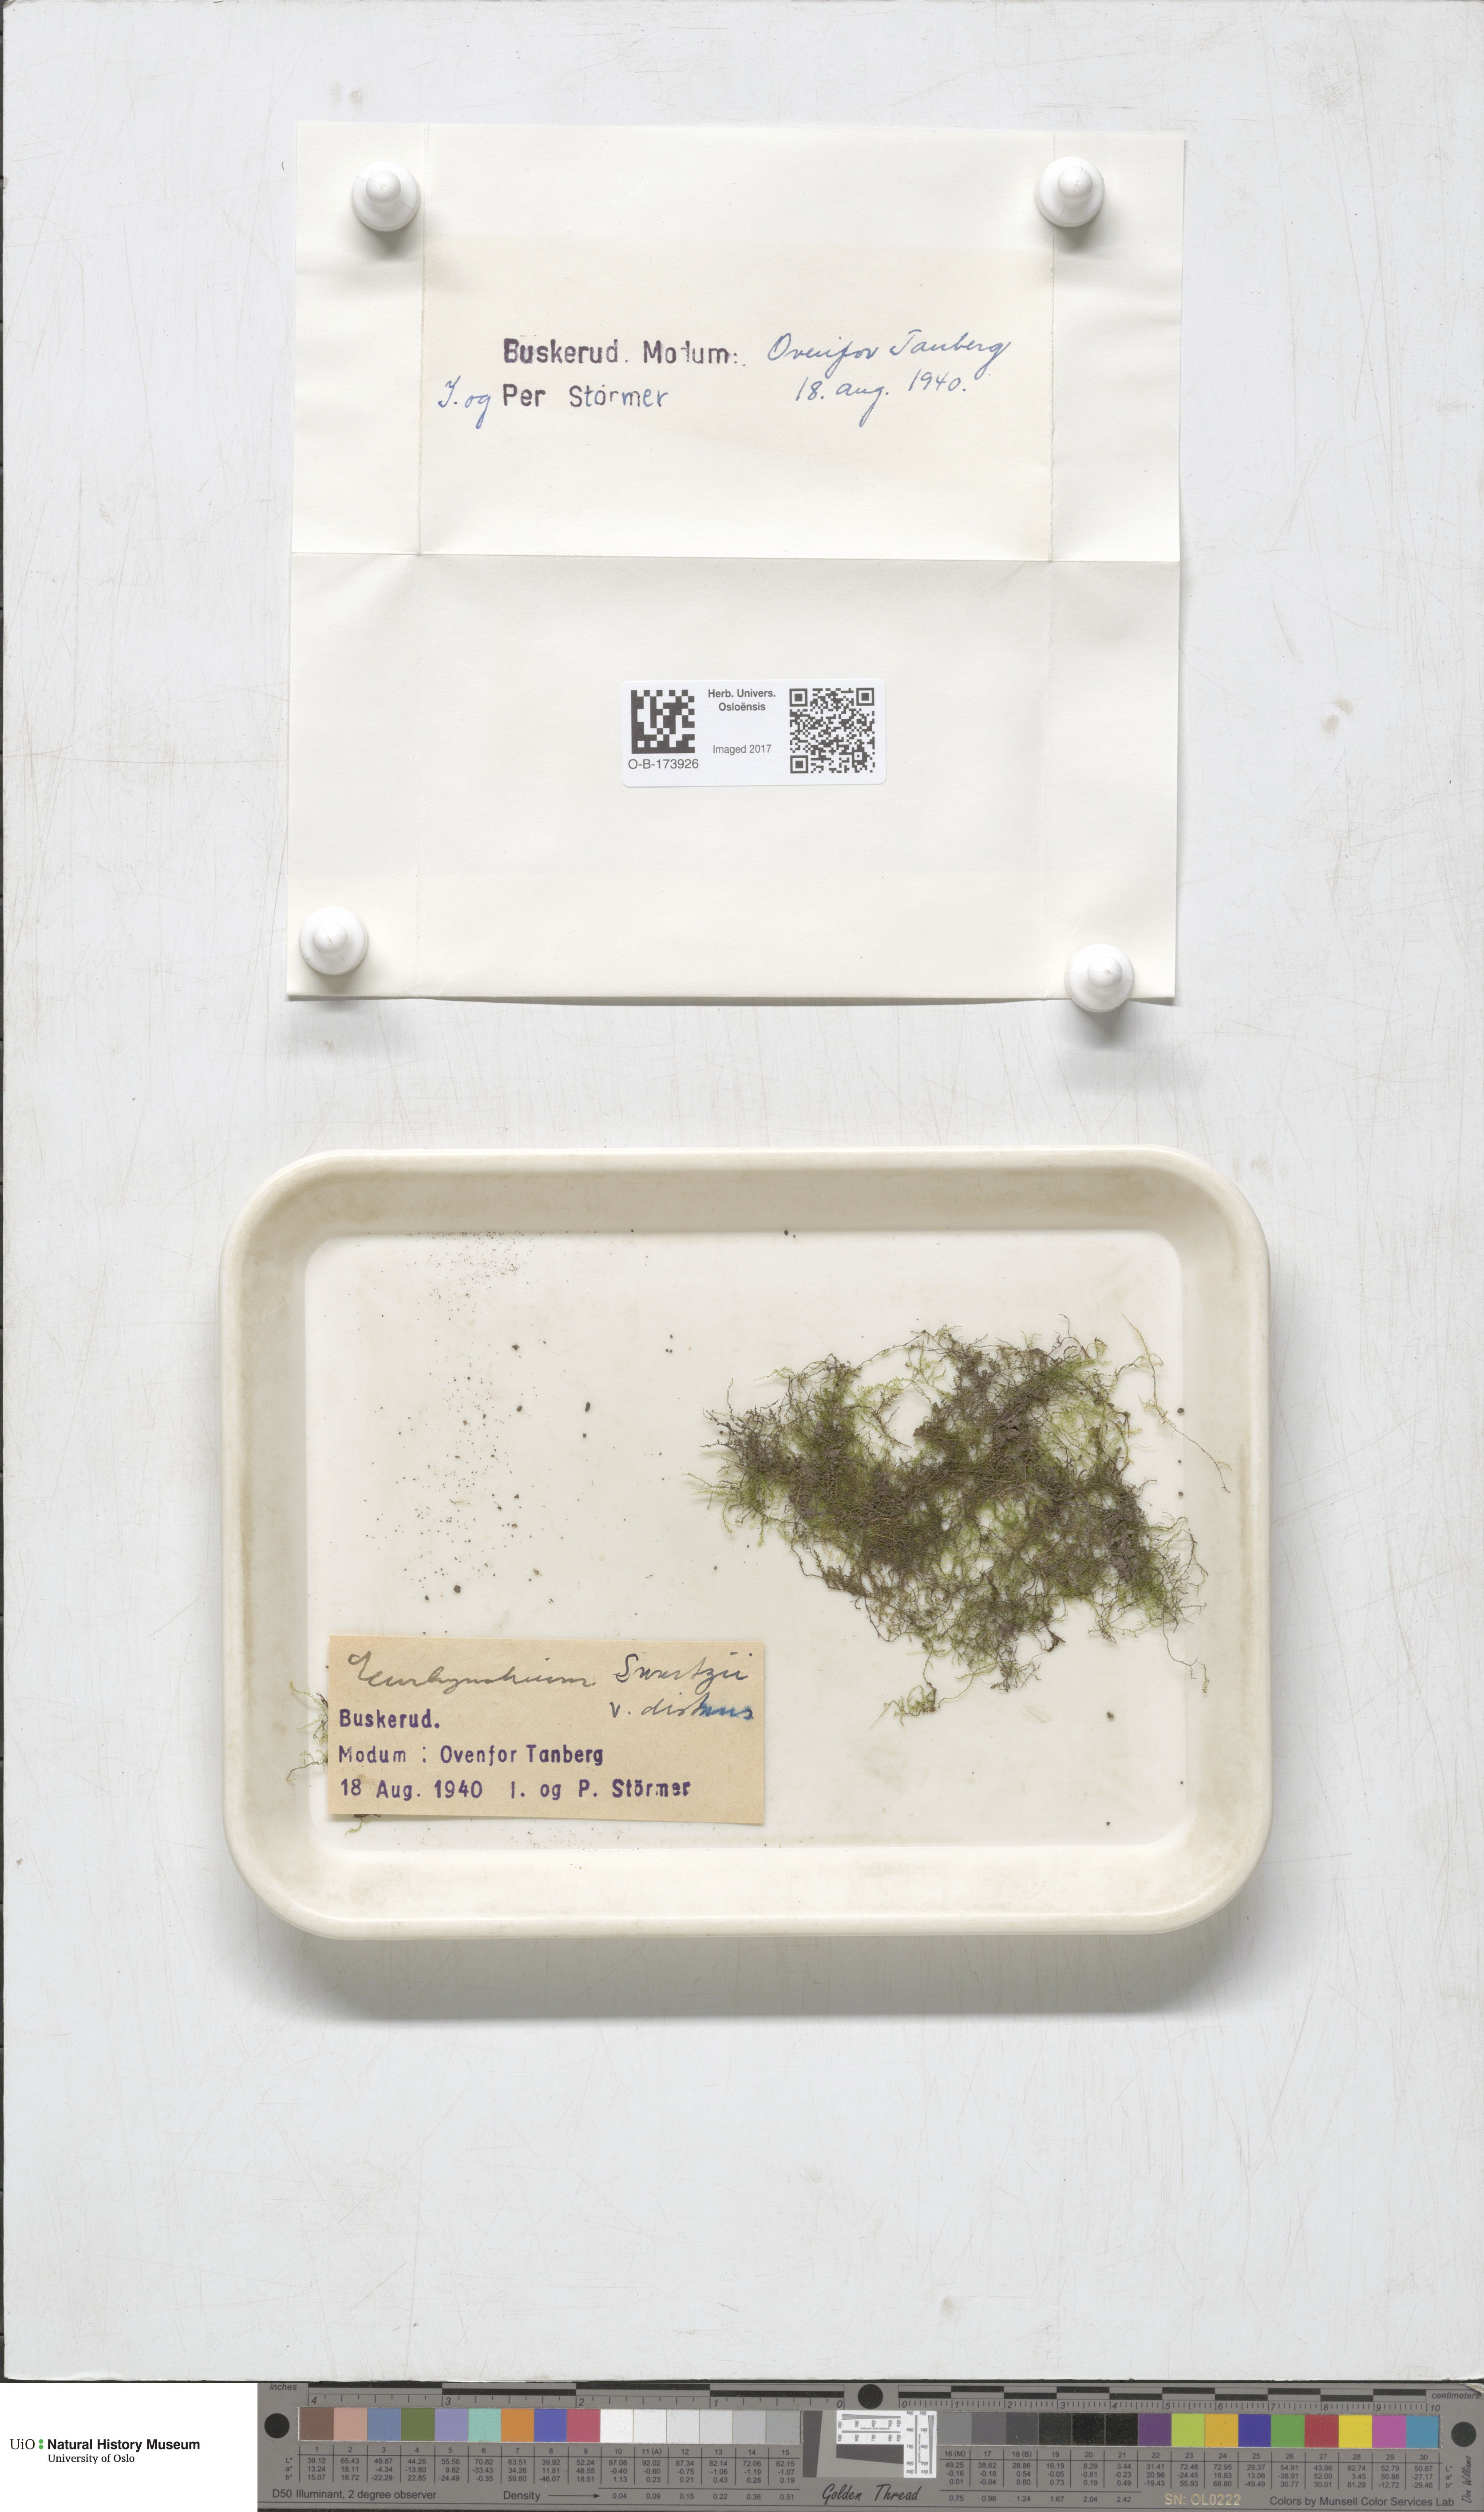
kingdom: Plantae
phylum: Bryophyta
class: Bryopsida
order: Hypnales
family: Brachytheciaceae
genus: Kindbergia
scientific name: Kindbergia praelonga
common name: Slender beaked moss
